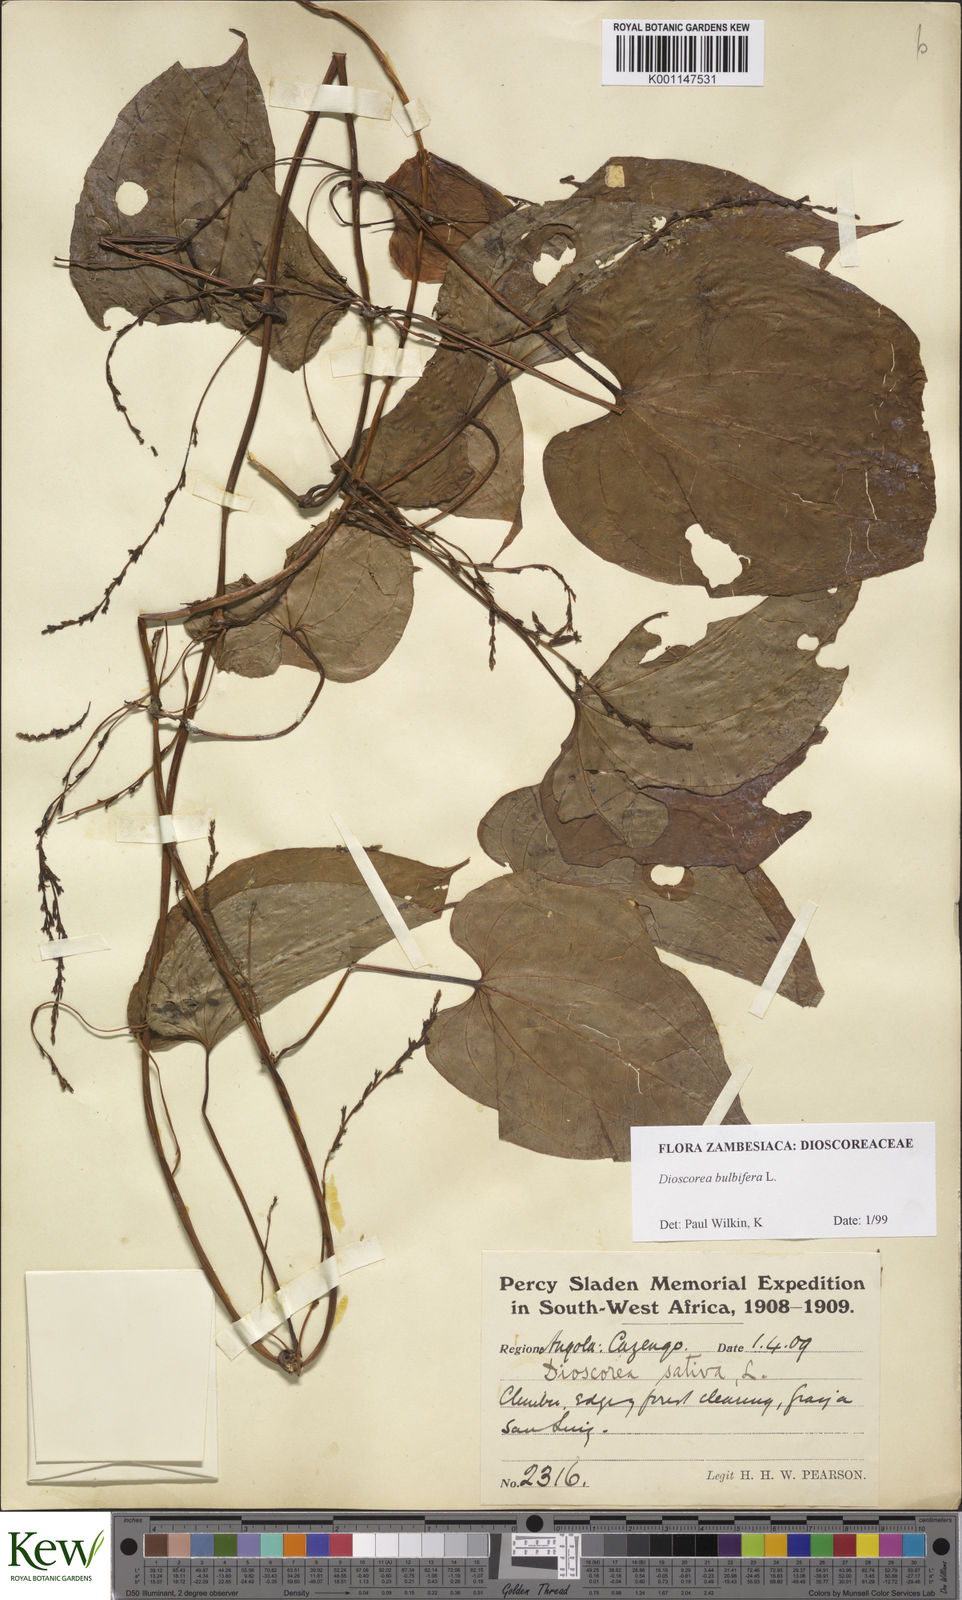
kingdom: Plantae
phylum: Tracheophyta
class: Liliopsida
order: Dioscoreales
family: Dioscoreaceae
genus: Dioscorea
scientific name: Dioscorea bulbifera
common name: Air yam
